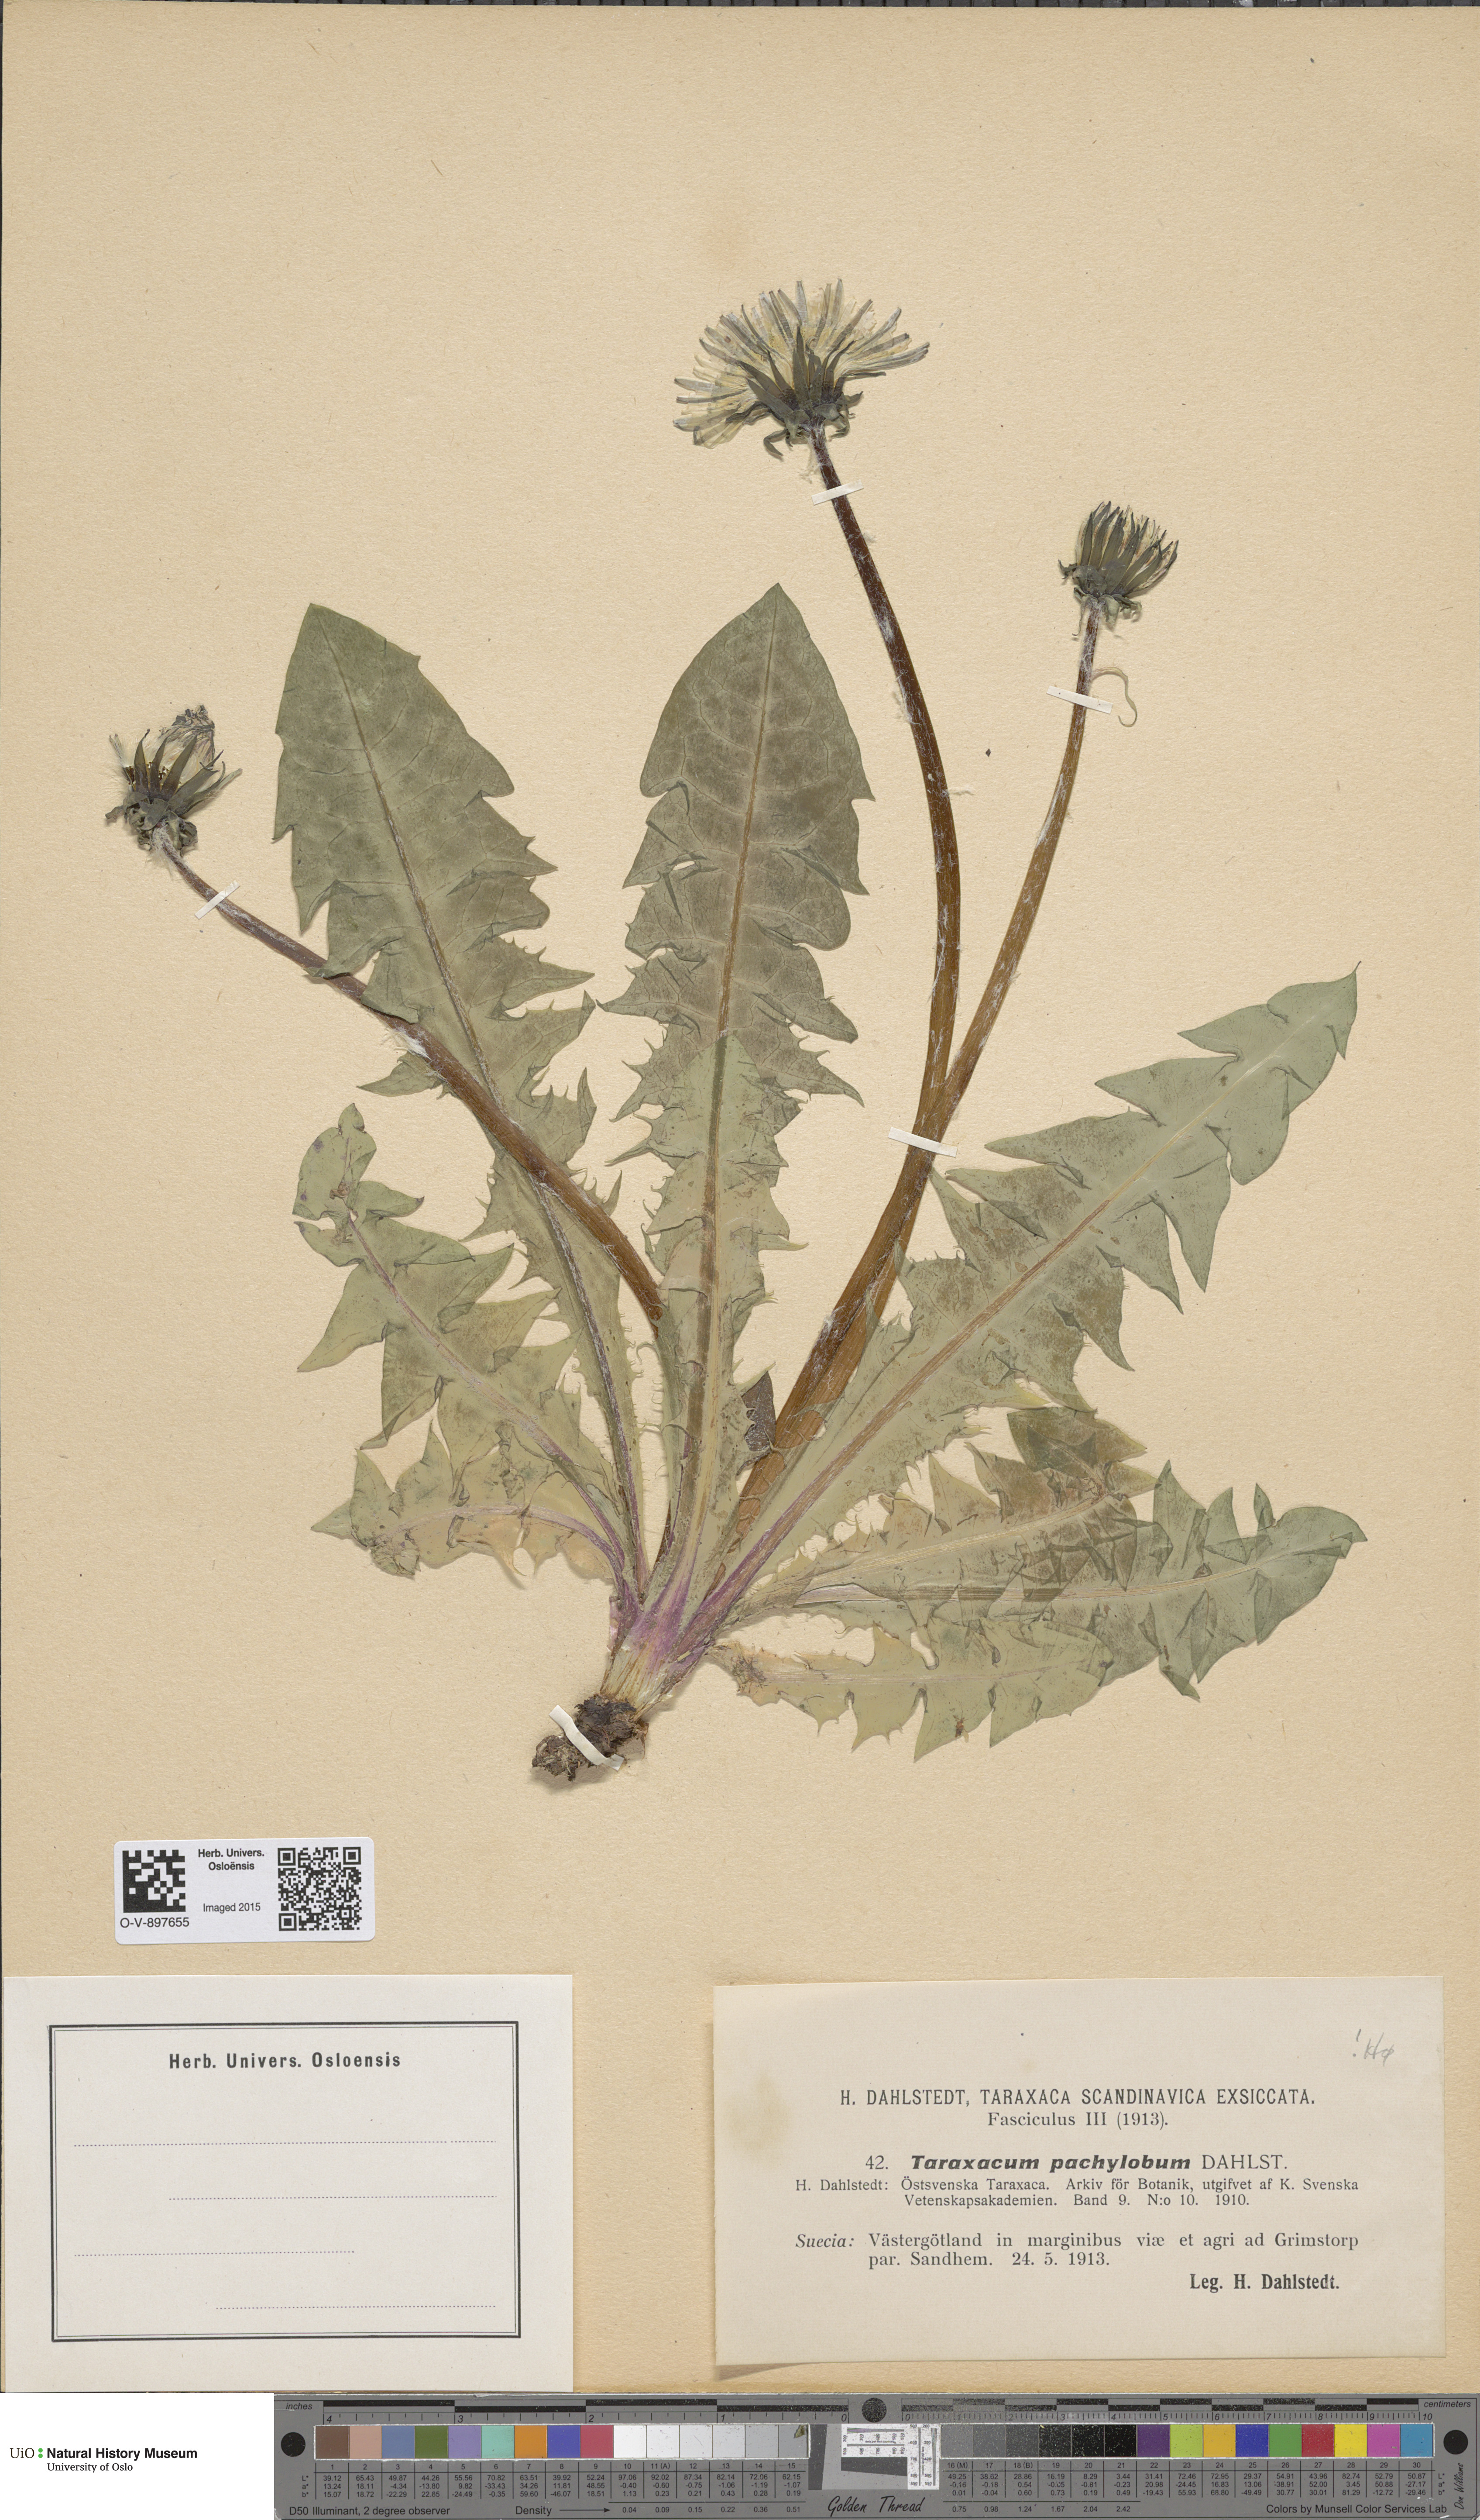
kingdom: Plantae
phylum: Tracheophyta
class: Magnoliopsida
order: Asterales
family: Asteraceae
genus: Taraxacum
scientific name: Taraxacum pachylobum
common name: Thick-lobed dandelion
